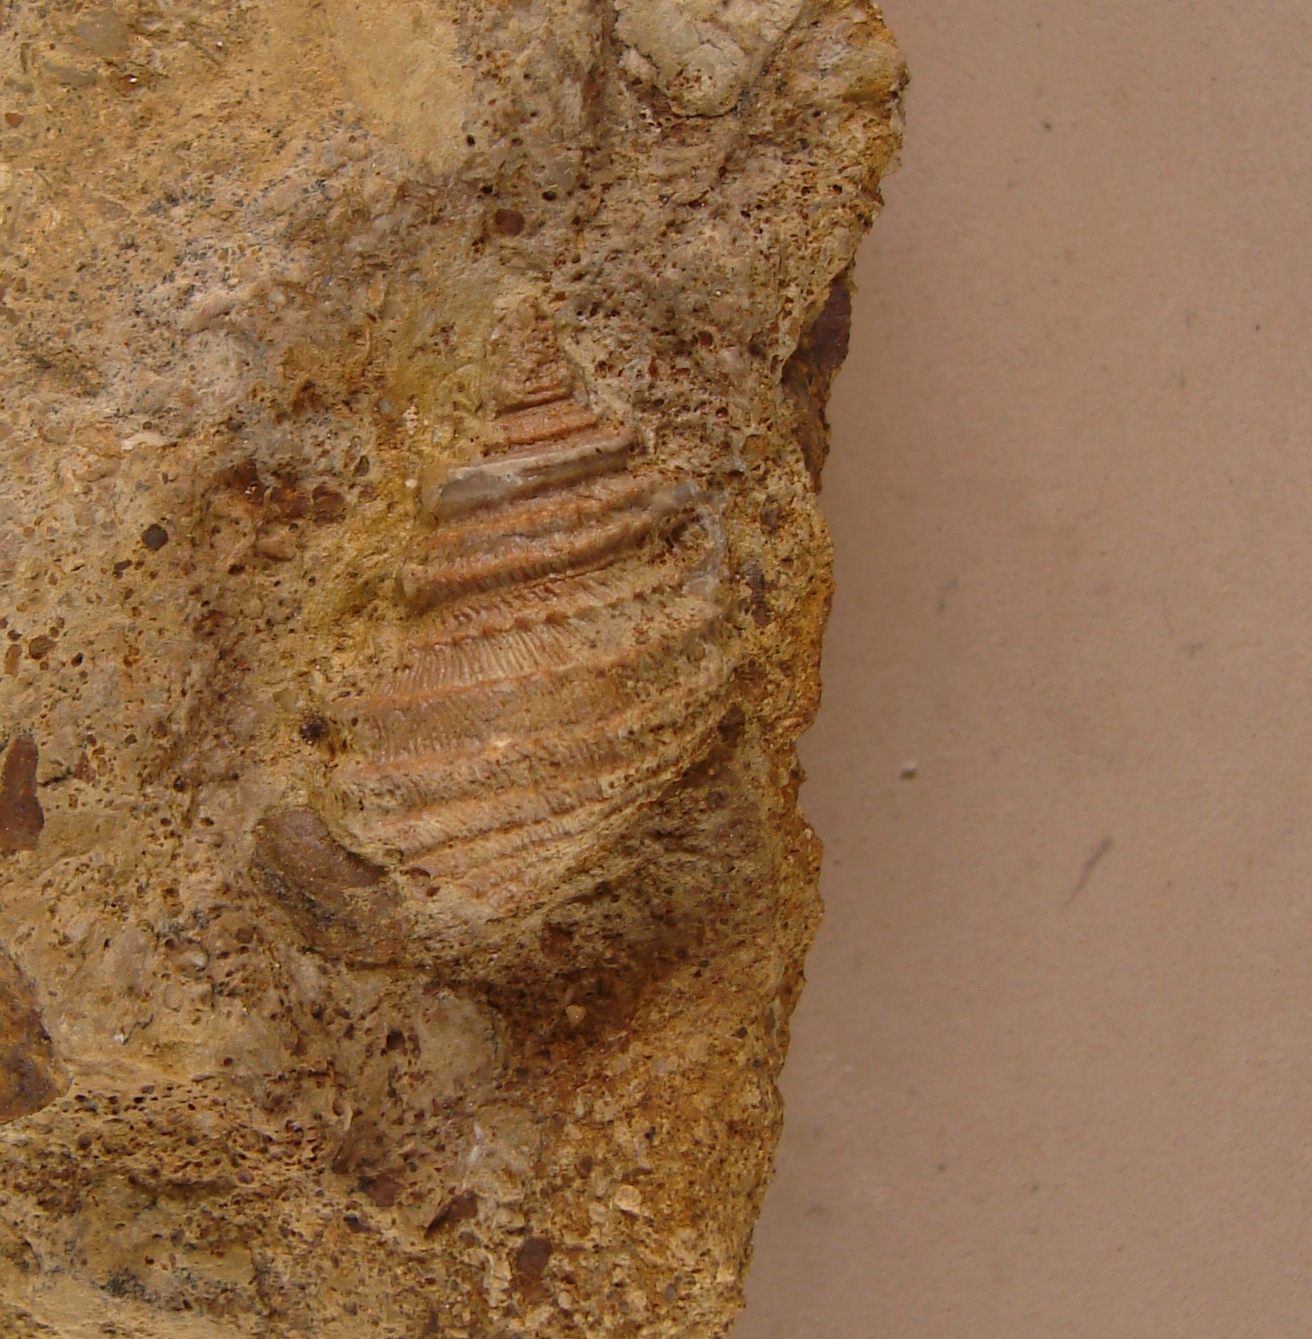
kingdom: Animalia
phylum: Mollusca
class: Gastropoda
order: Seguenziida
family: Eucycloscalidae
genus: Ambercyclus
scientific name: Ambercyclus Turbo ornatus
